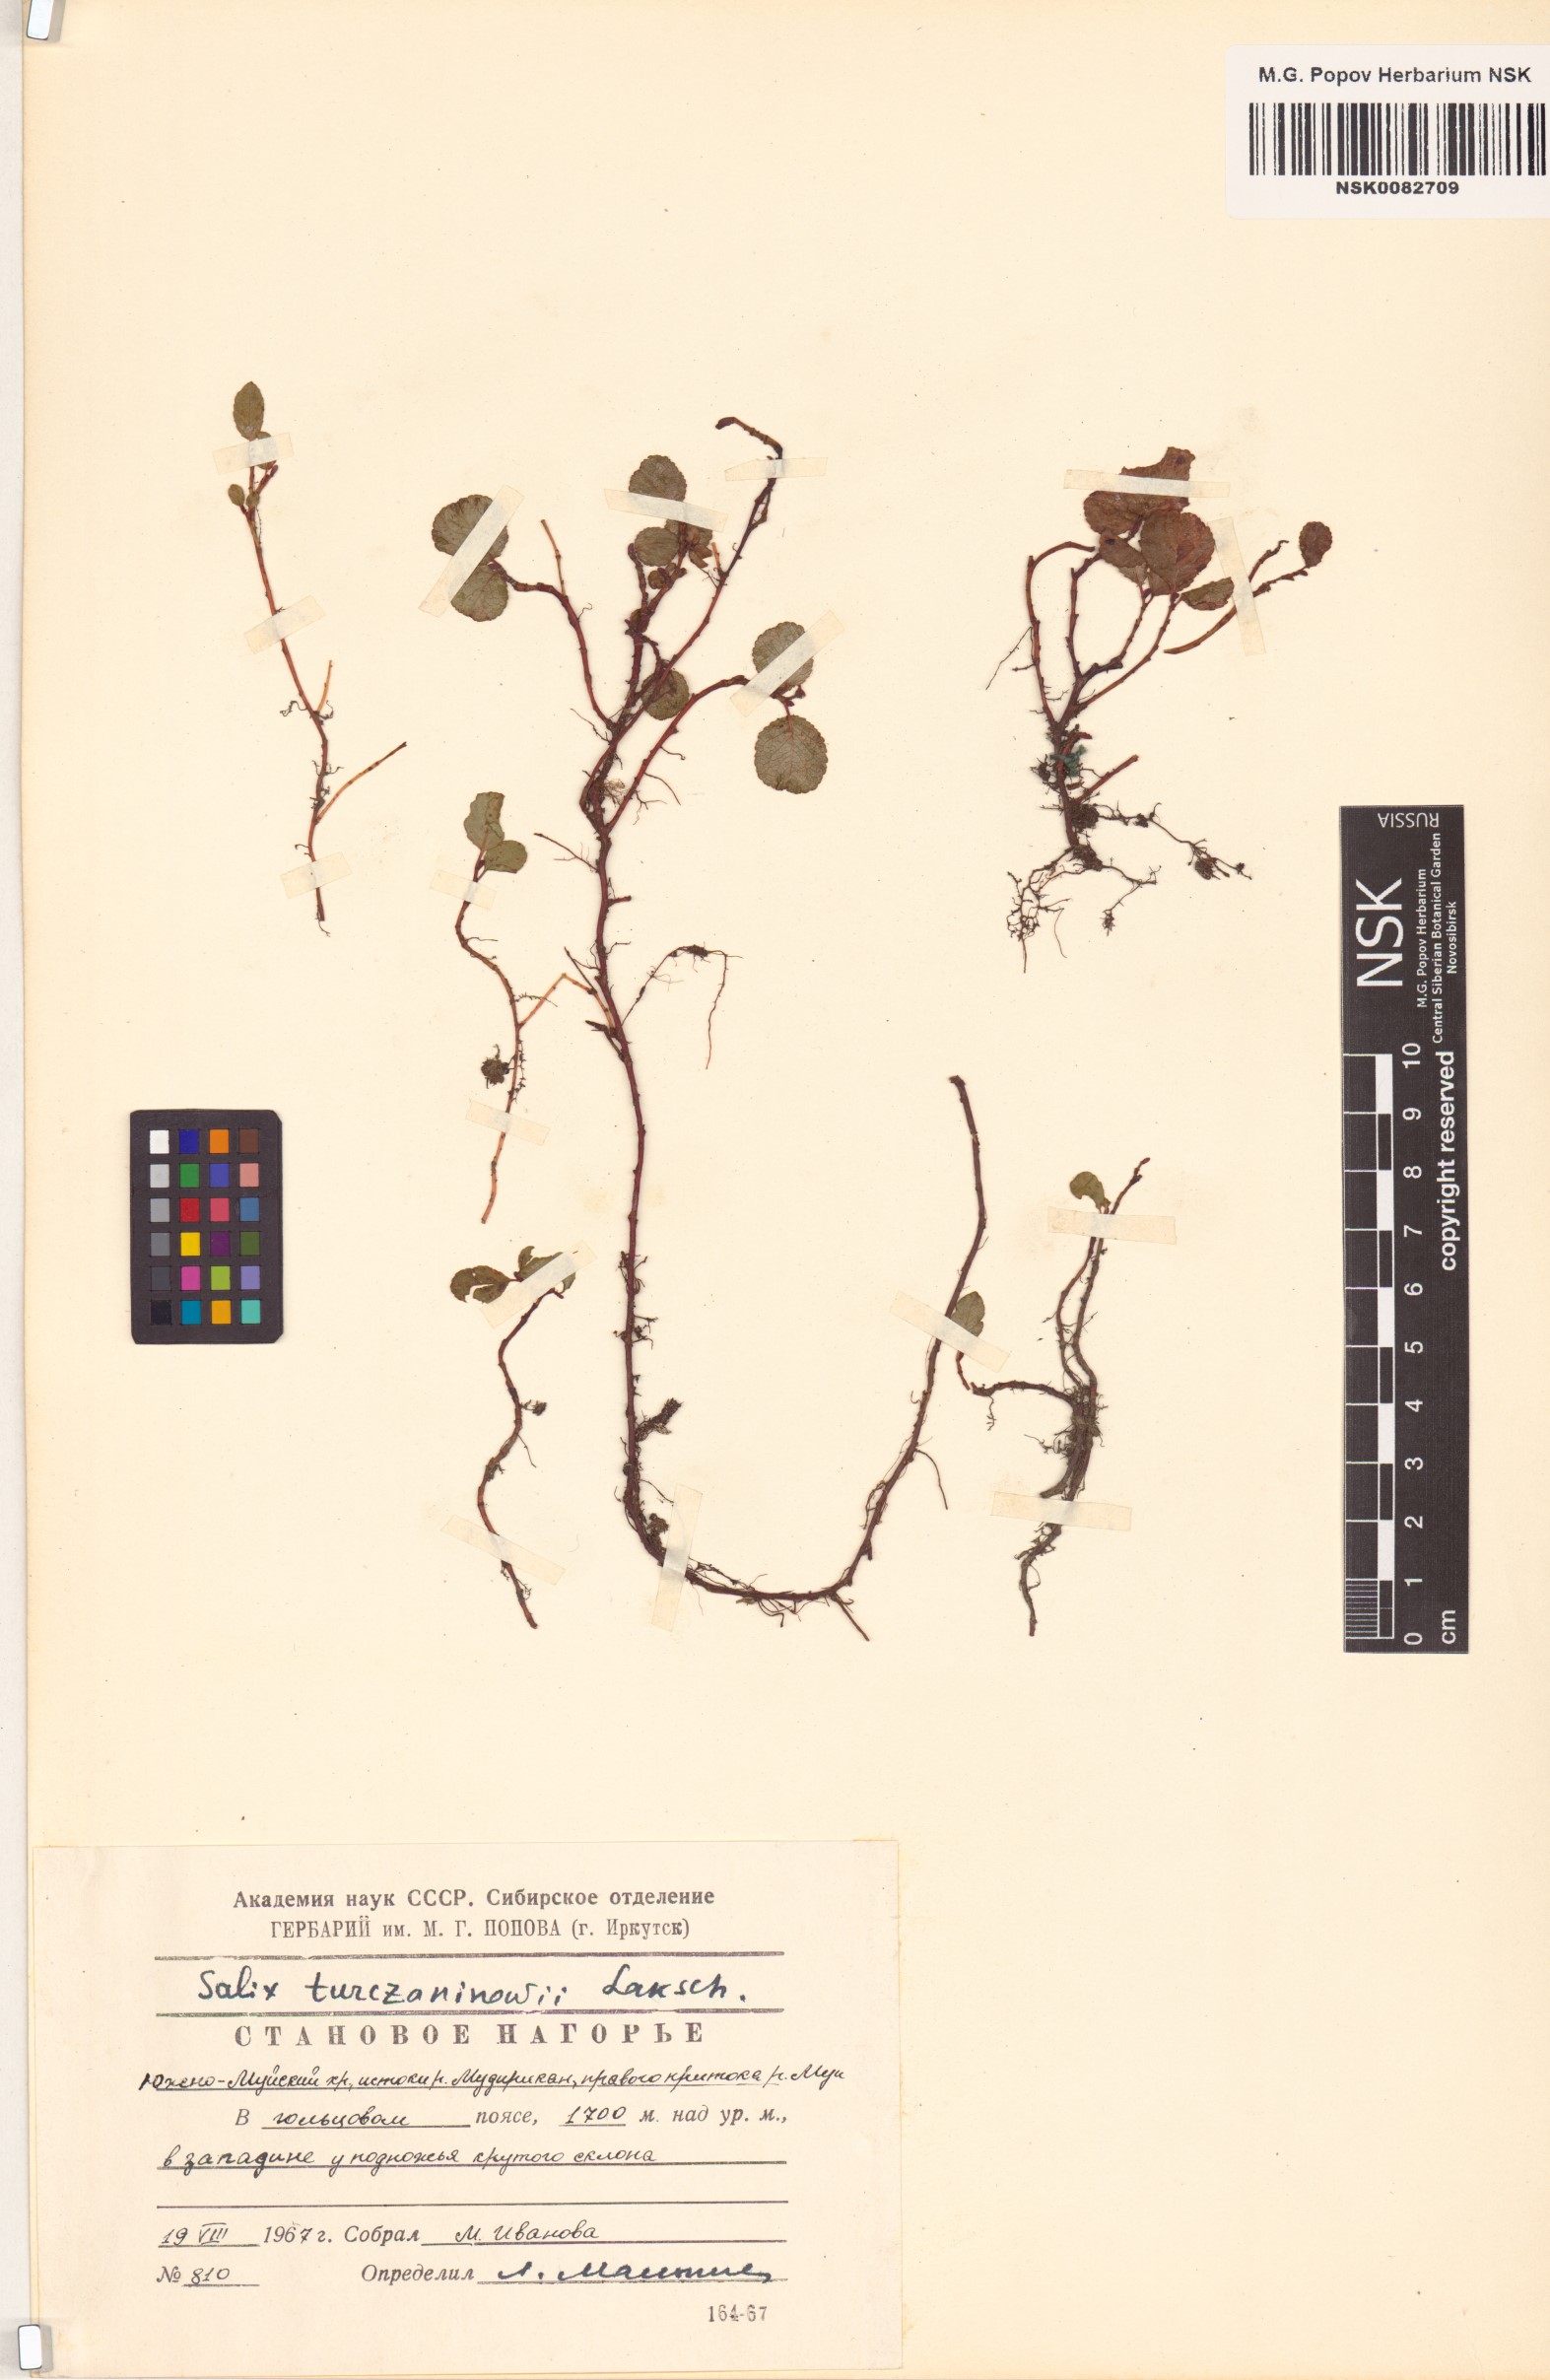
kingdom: Plantae
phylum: Tracheophyta
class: Magnoliopsida
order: Malpighiales
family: Salicaceae
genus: Salix
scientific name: Salix turczaninowii
